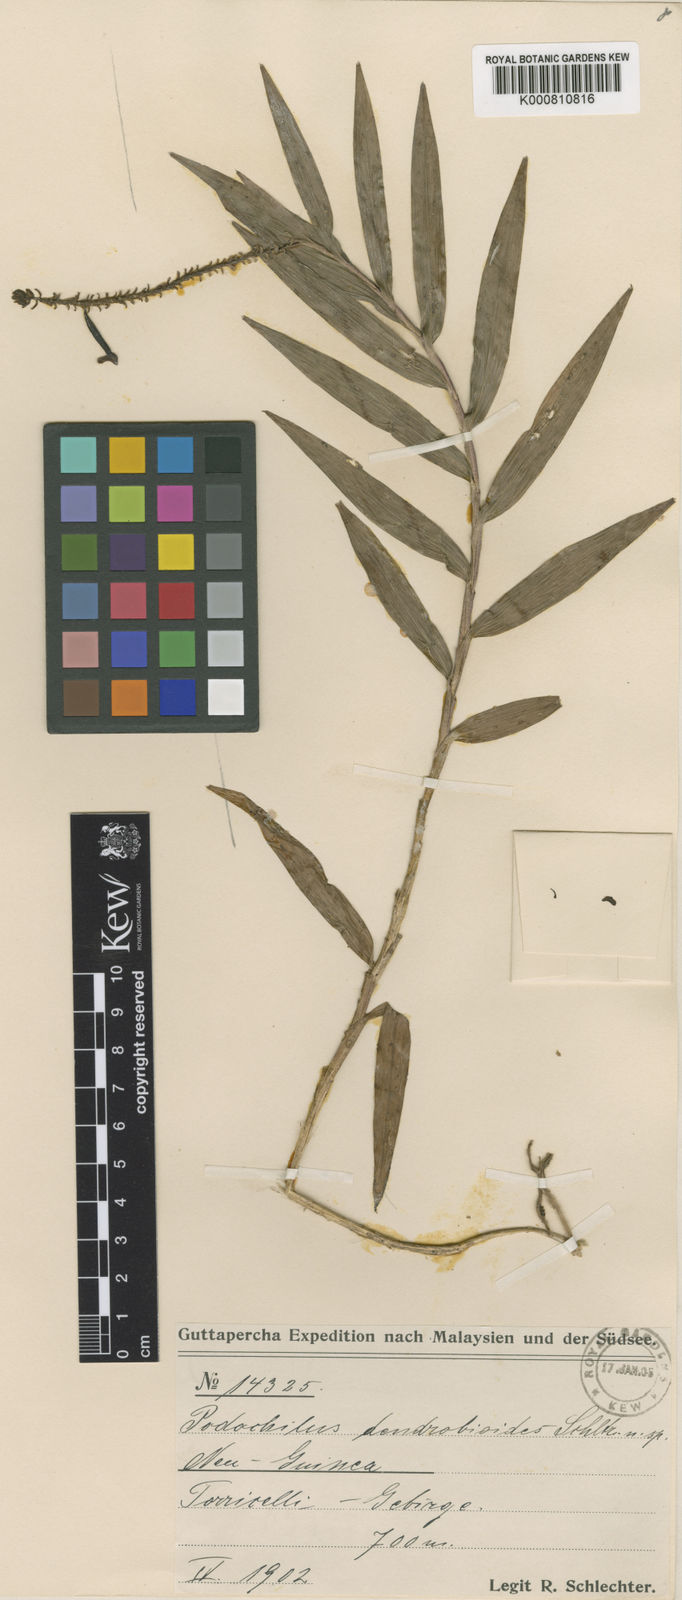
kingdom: Plantae
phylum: Tracheophyta
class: Liliopsida
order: Asparagales
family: Orchidaceae
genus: Appendicula
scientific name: Appendicula pendula
